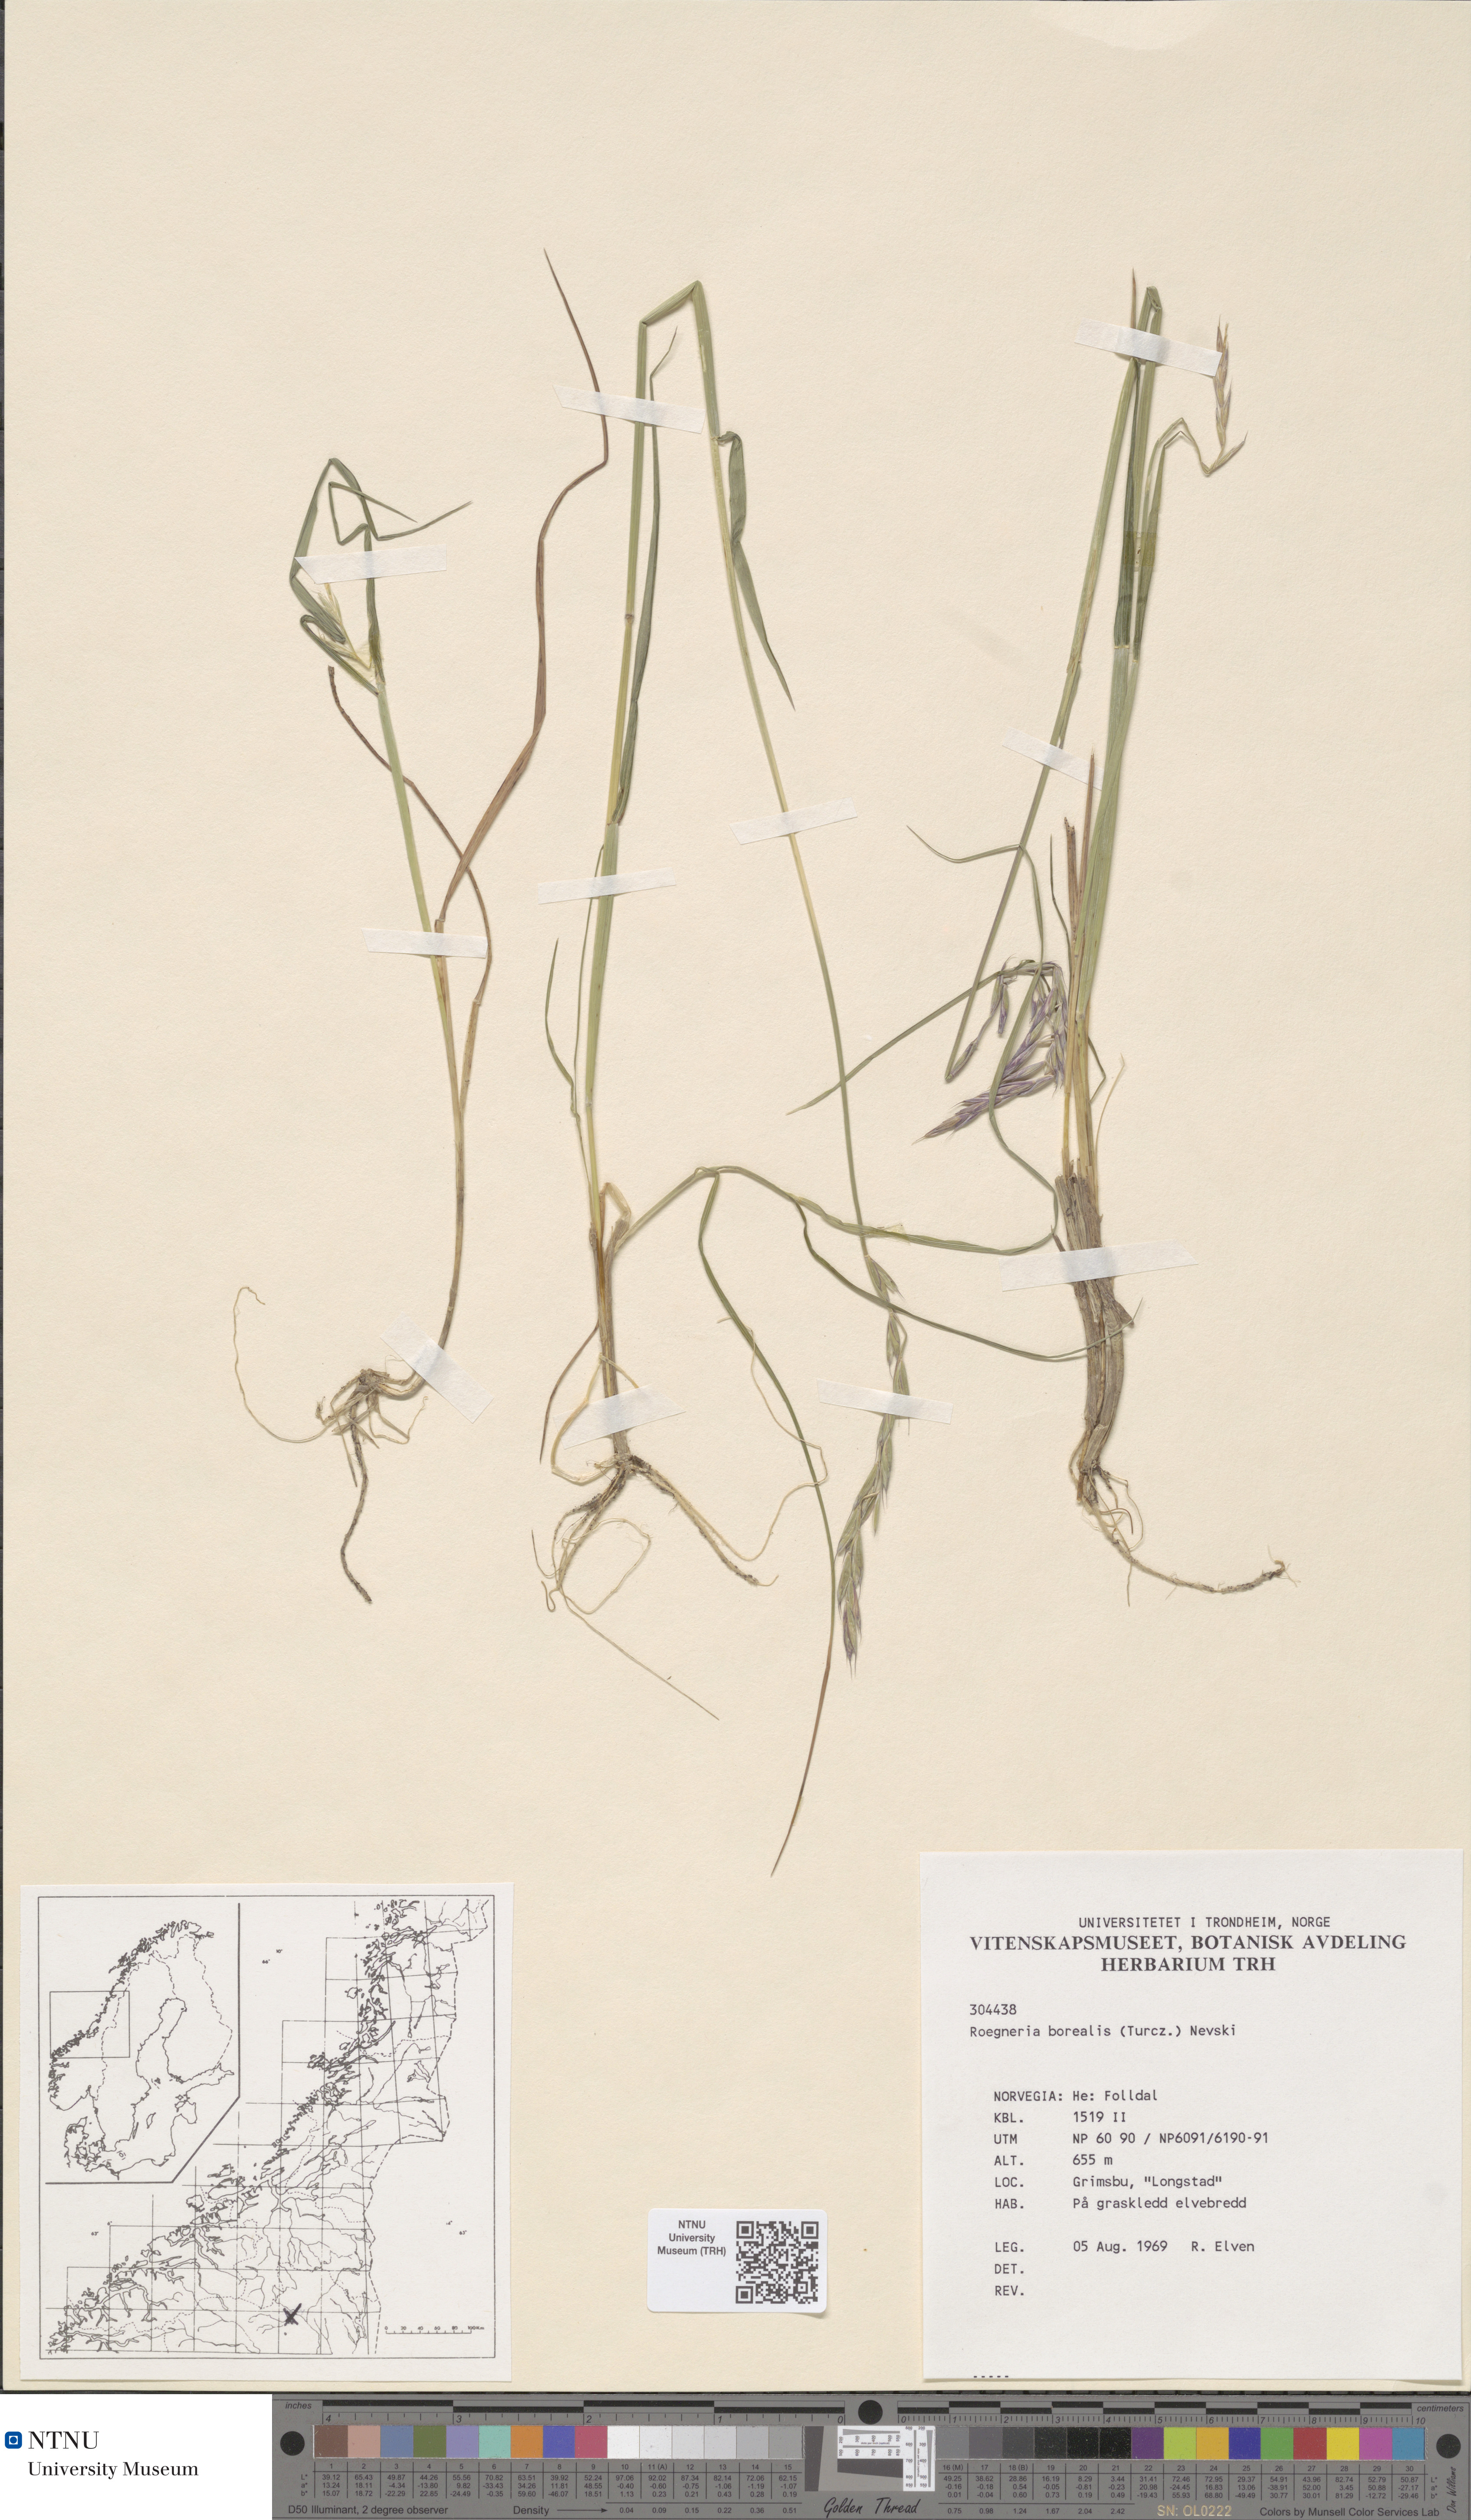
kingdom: Plantae
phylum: Tracheophyta
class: Liliopsida
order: Poales
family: Poaceae
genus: Elymus
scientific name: Elymus macrourus
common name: Northern wheatgrass
